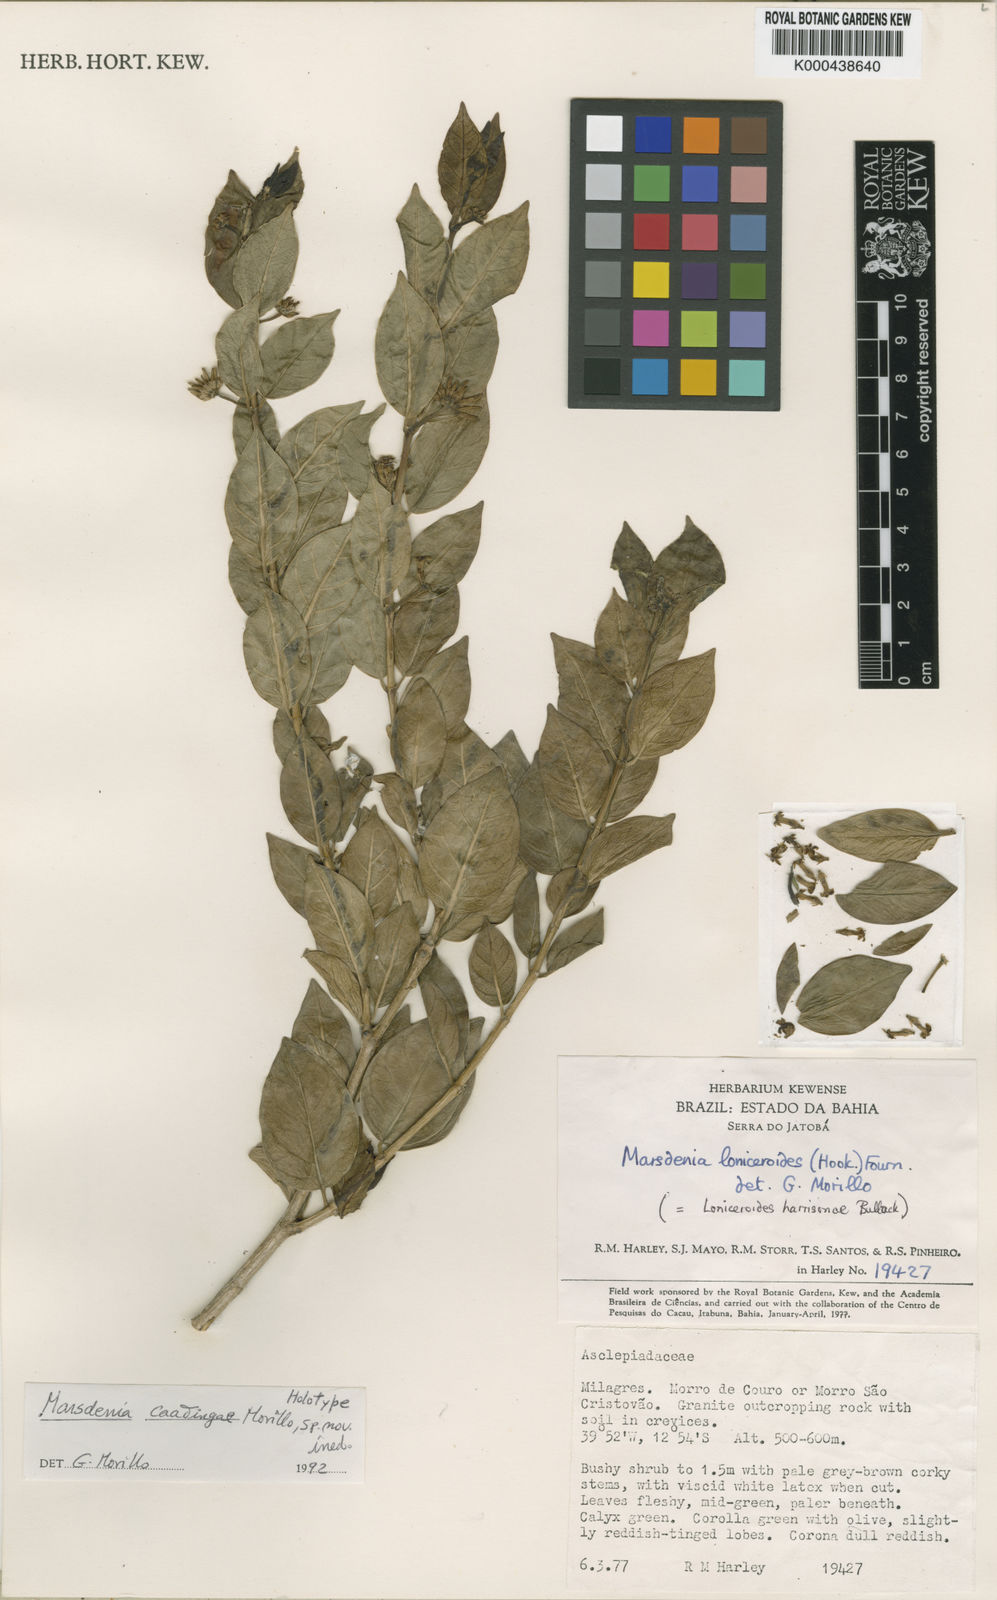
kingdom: Plantae
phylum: Tracheophyta
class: Magnoliopsida
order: Gentianales
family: Apocynaceae
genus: Ruehssia
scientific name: Ruehssia caatingae
